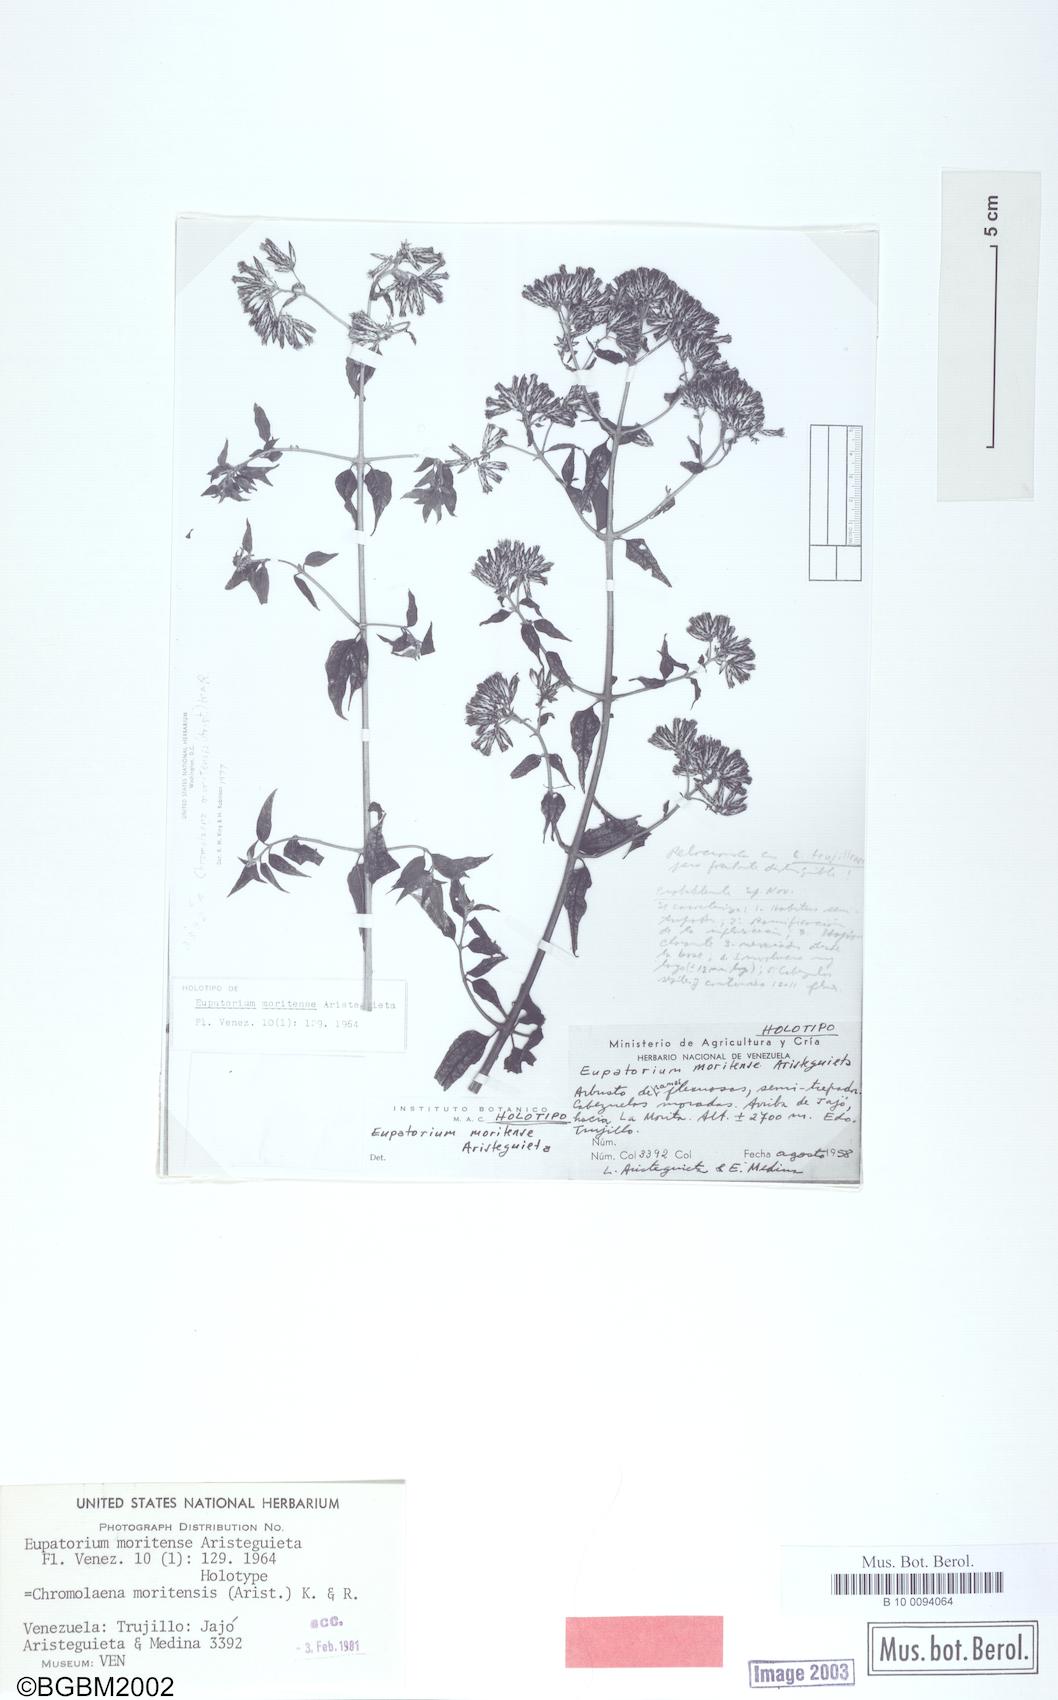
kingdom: Plantae
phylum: Tracheophyta
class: Magnoliopsida
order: Asterales
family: Asteraceae
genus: Chromolaena
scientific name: Chromolaena moritensis
